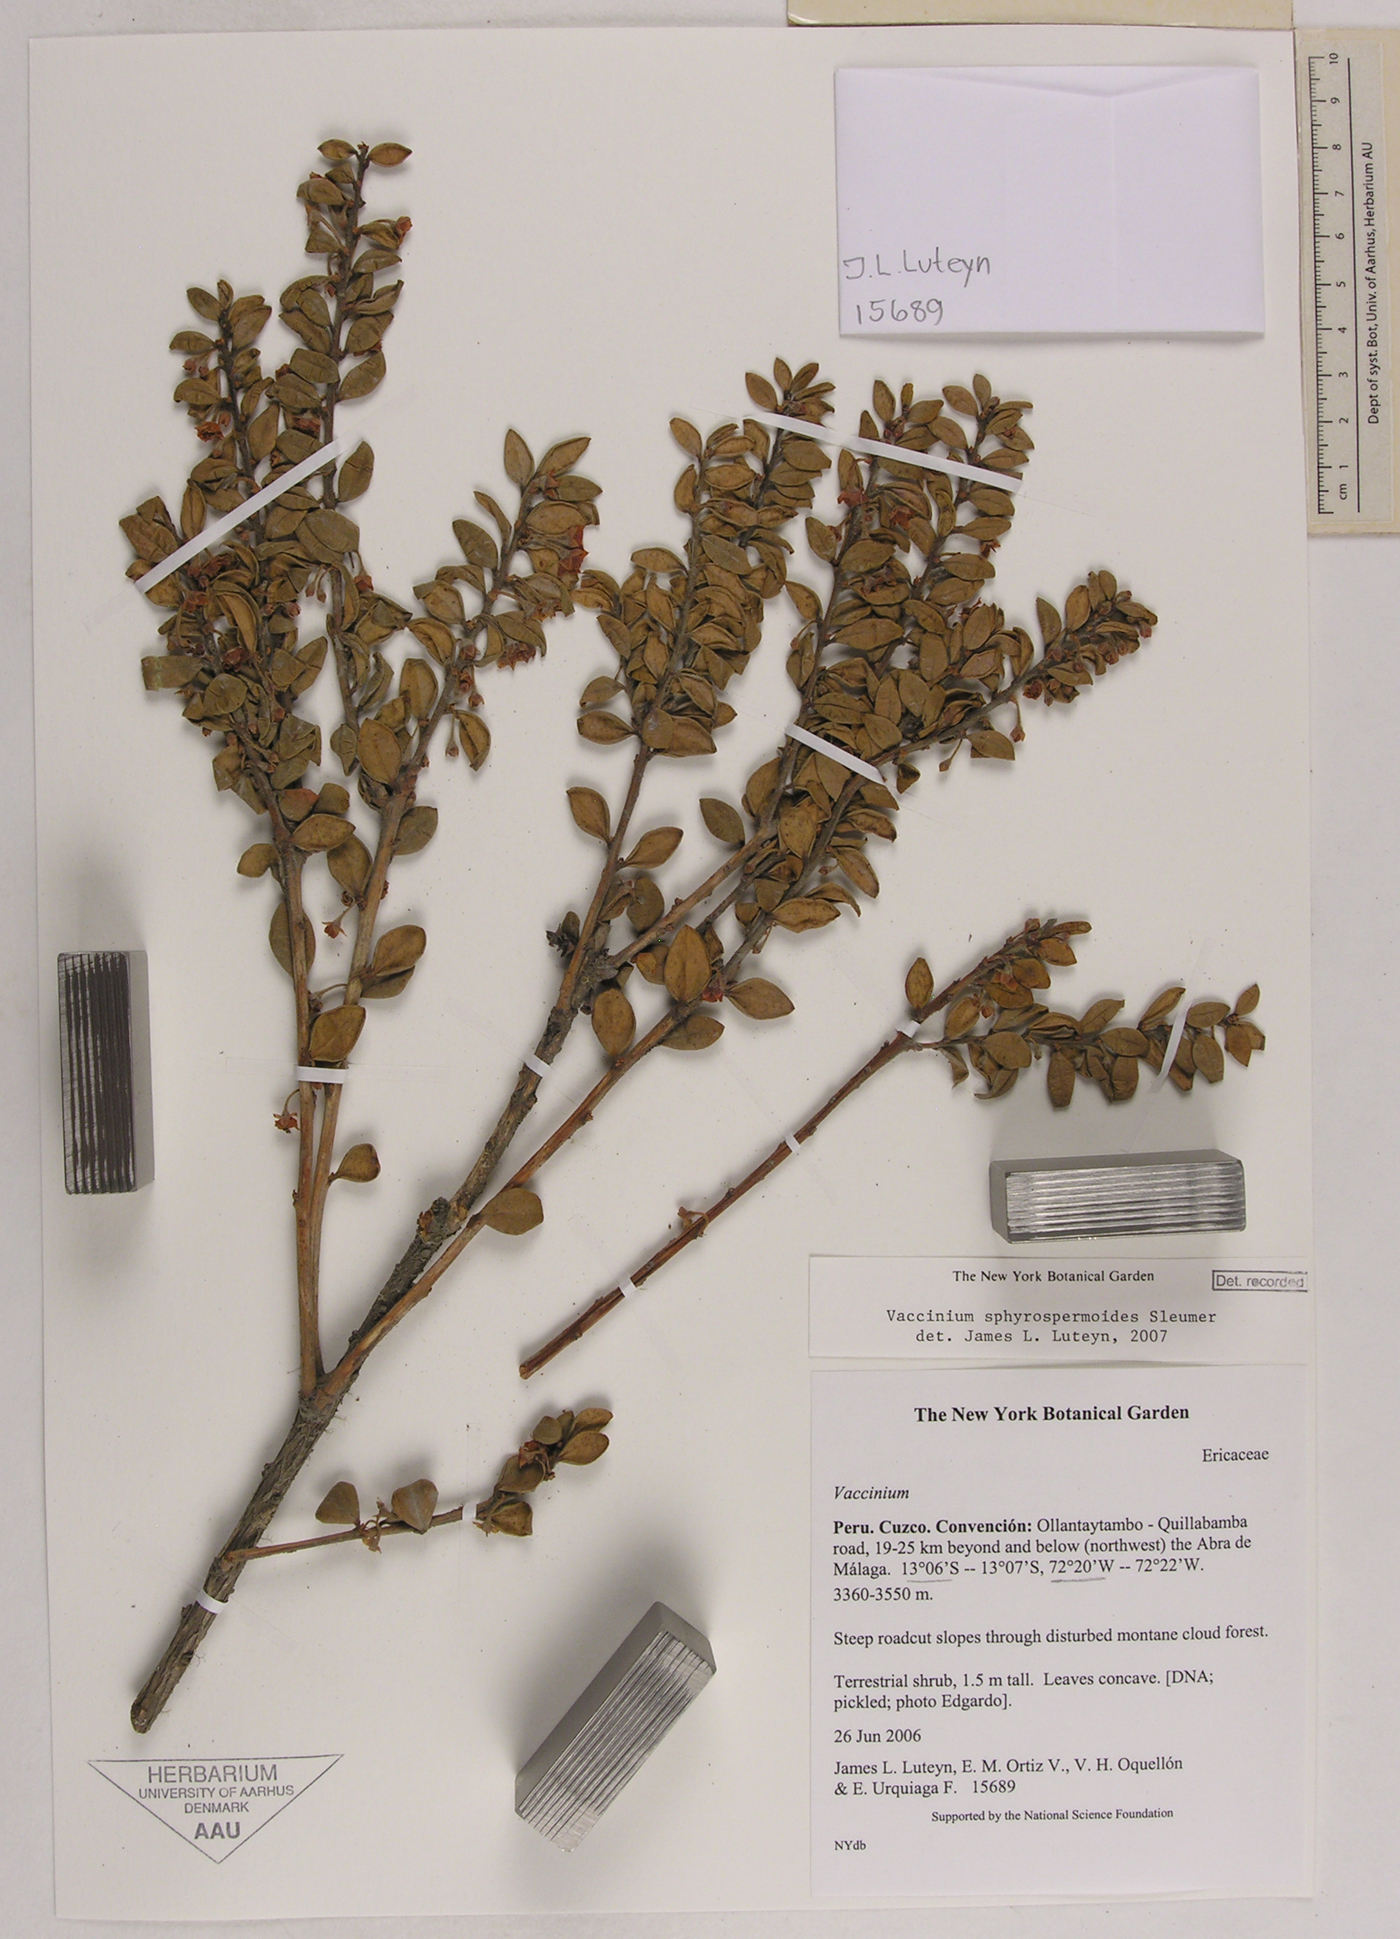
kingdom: Plantae
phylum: Tracheophyta
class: Magnoliopsida
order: Ericales
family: Ericaceae
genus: Sphyrospermum
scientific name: Sphyrospermum myrtifolium
